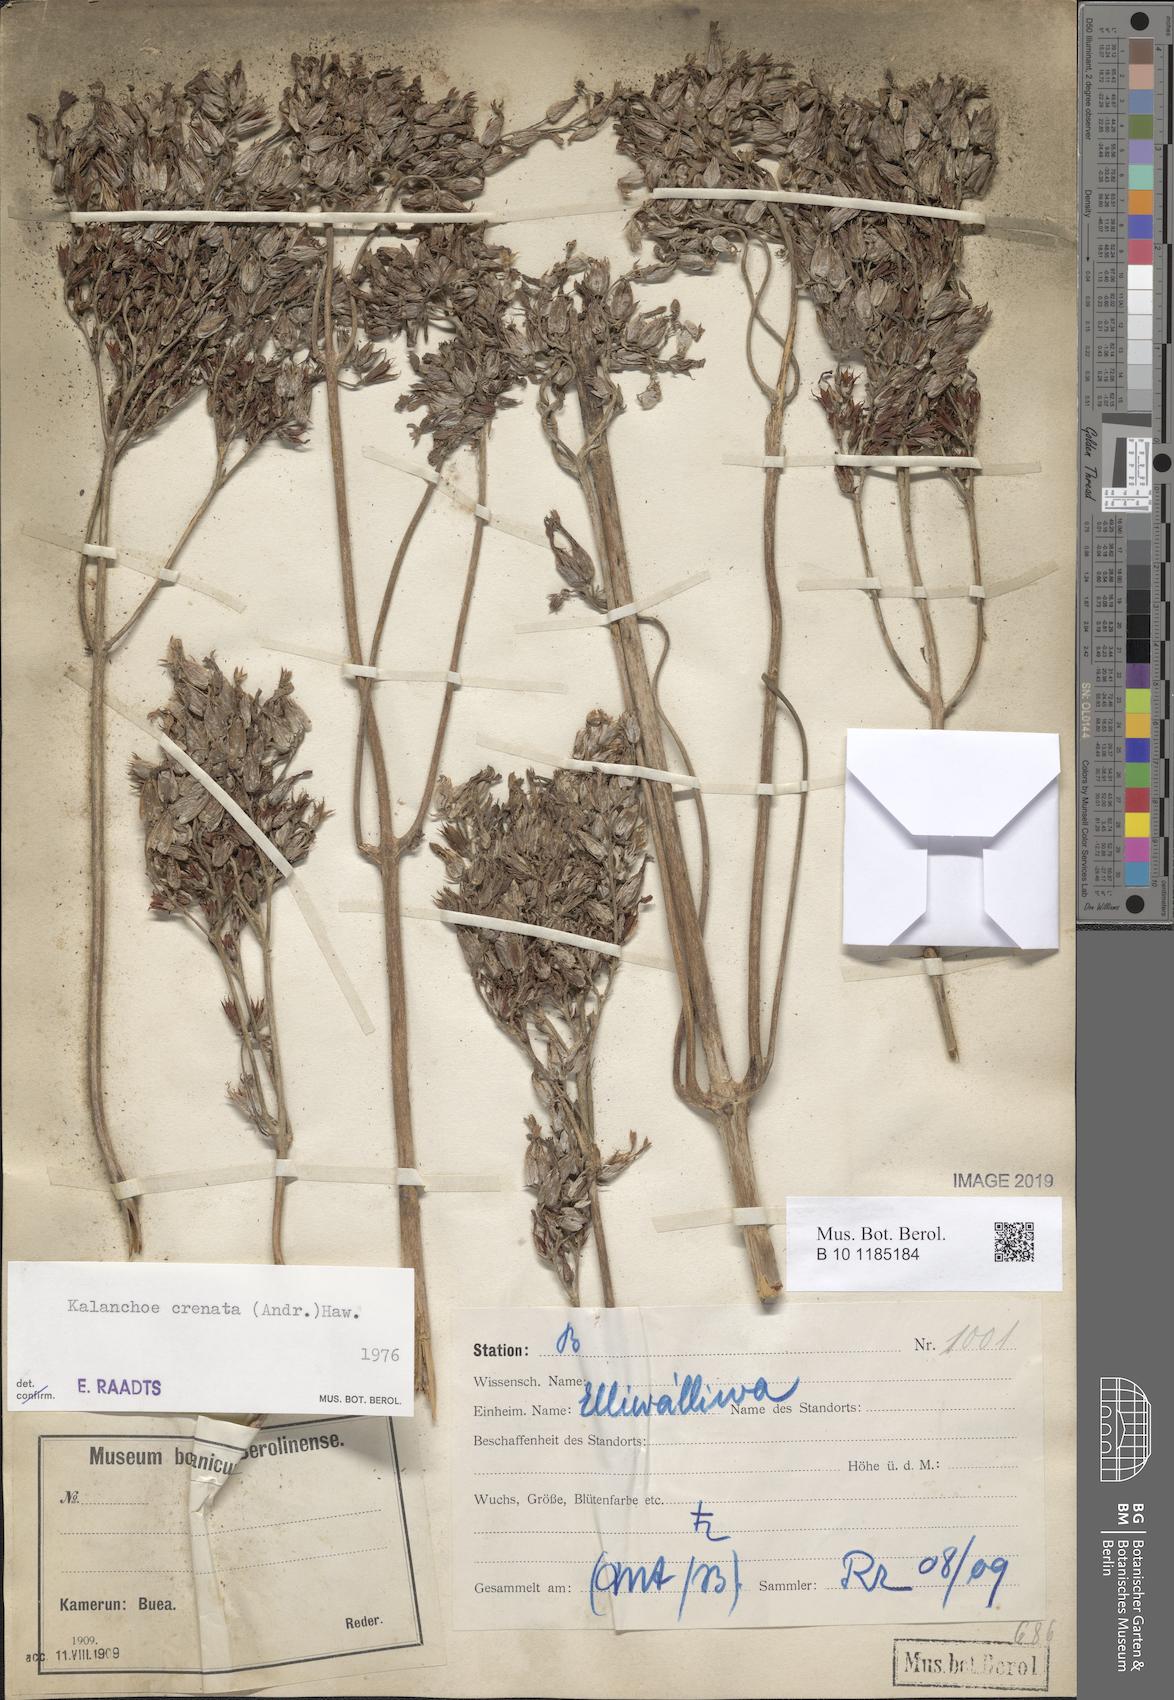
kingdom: Plantae
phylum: Tracheophyta
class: Magnoliopsida
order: Saxifragales
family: Crassulaceae
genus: Kalanchoe
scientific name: Kalanchoe crenata
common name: Neverdie
